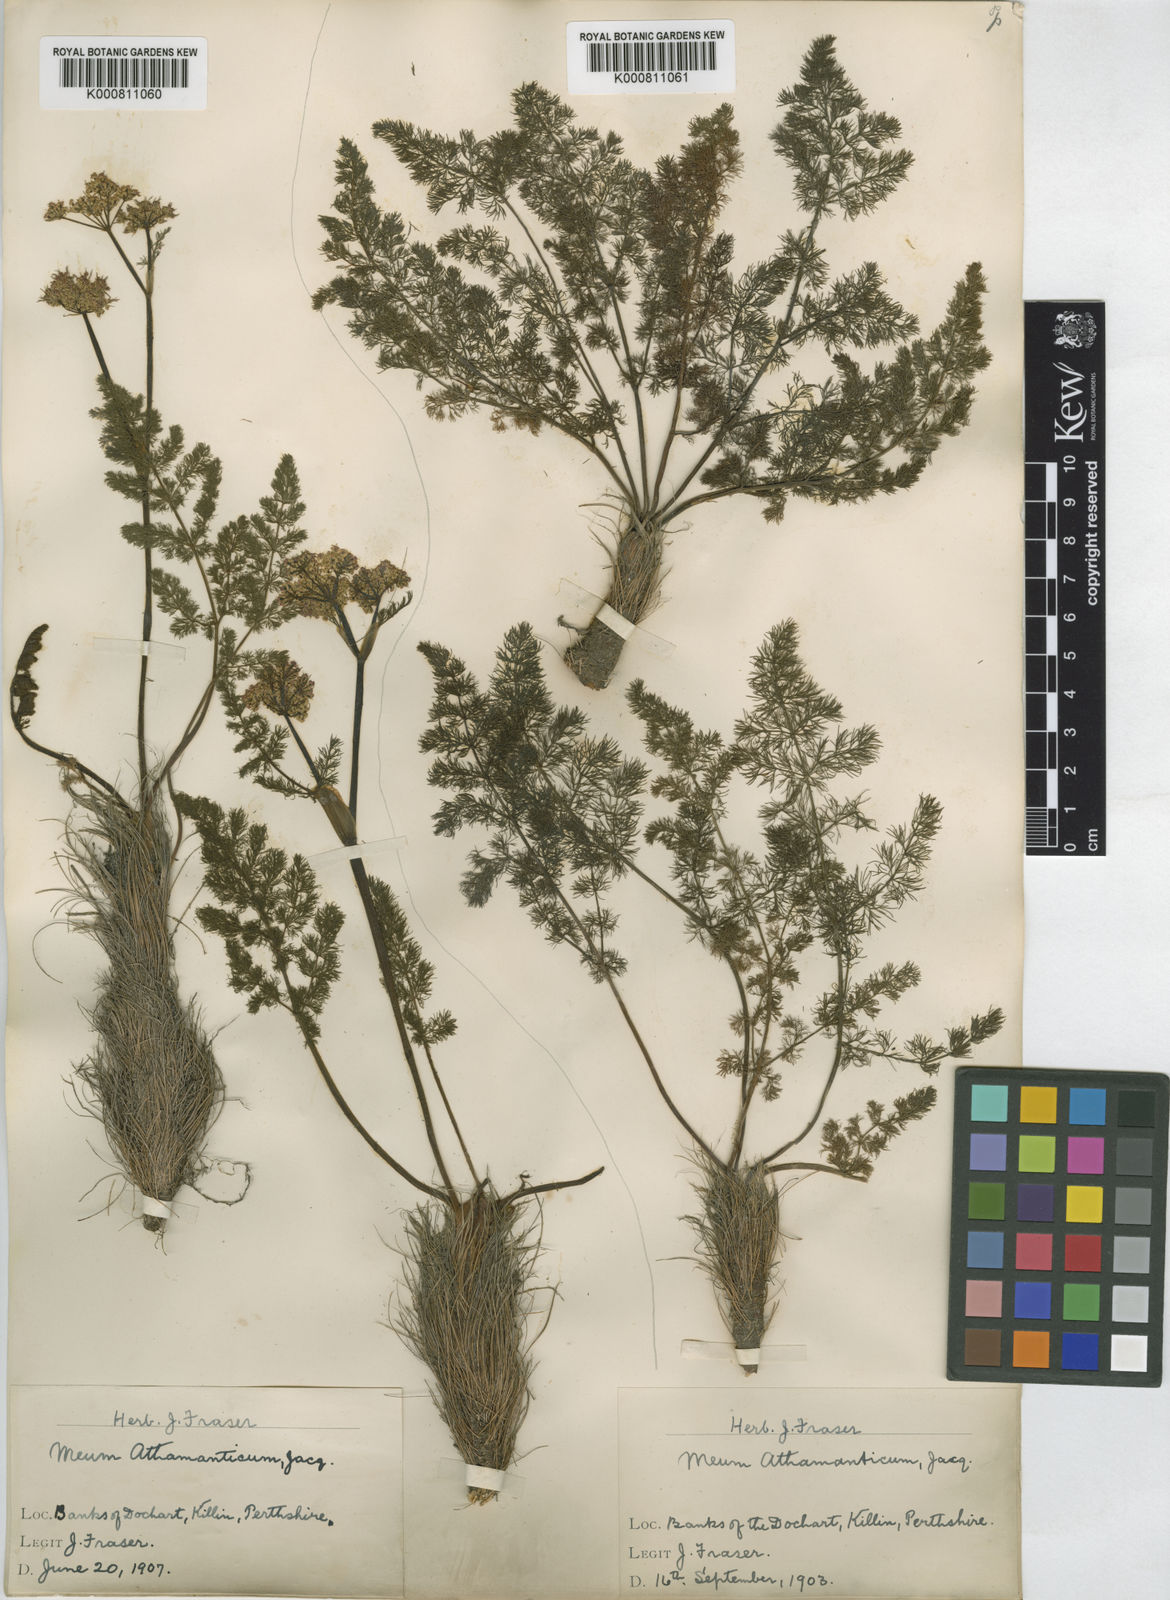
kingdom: Plantae
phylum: Tracheophyta
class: Magnoliopsida
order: Apiales
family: Apiaceae
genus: Meum
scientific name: Meum athamanticum
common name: Spignel
